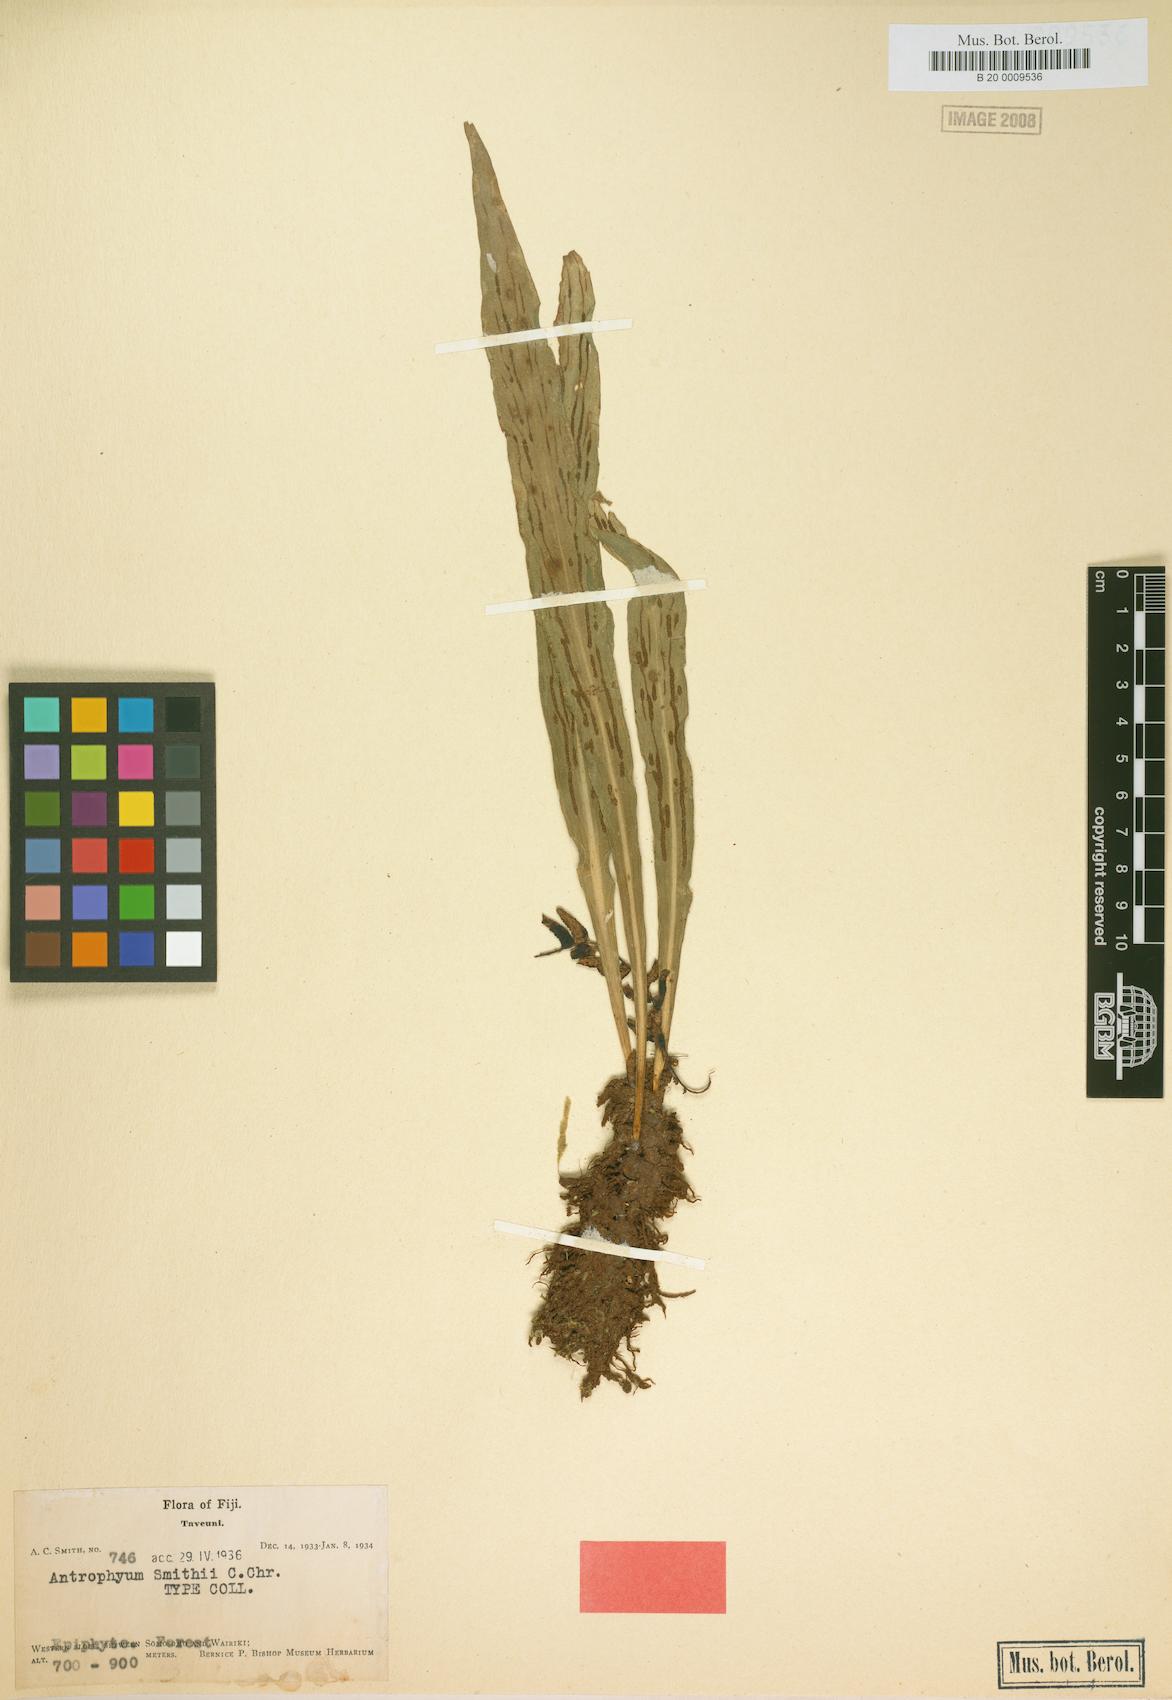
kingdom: Plantae
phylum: Tracheophyta
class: Polypodiopsida
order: Polypodiales
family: Pteridaceae
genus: Antrophyum
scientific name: Antrophyum smithii
